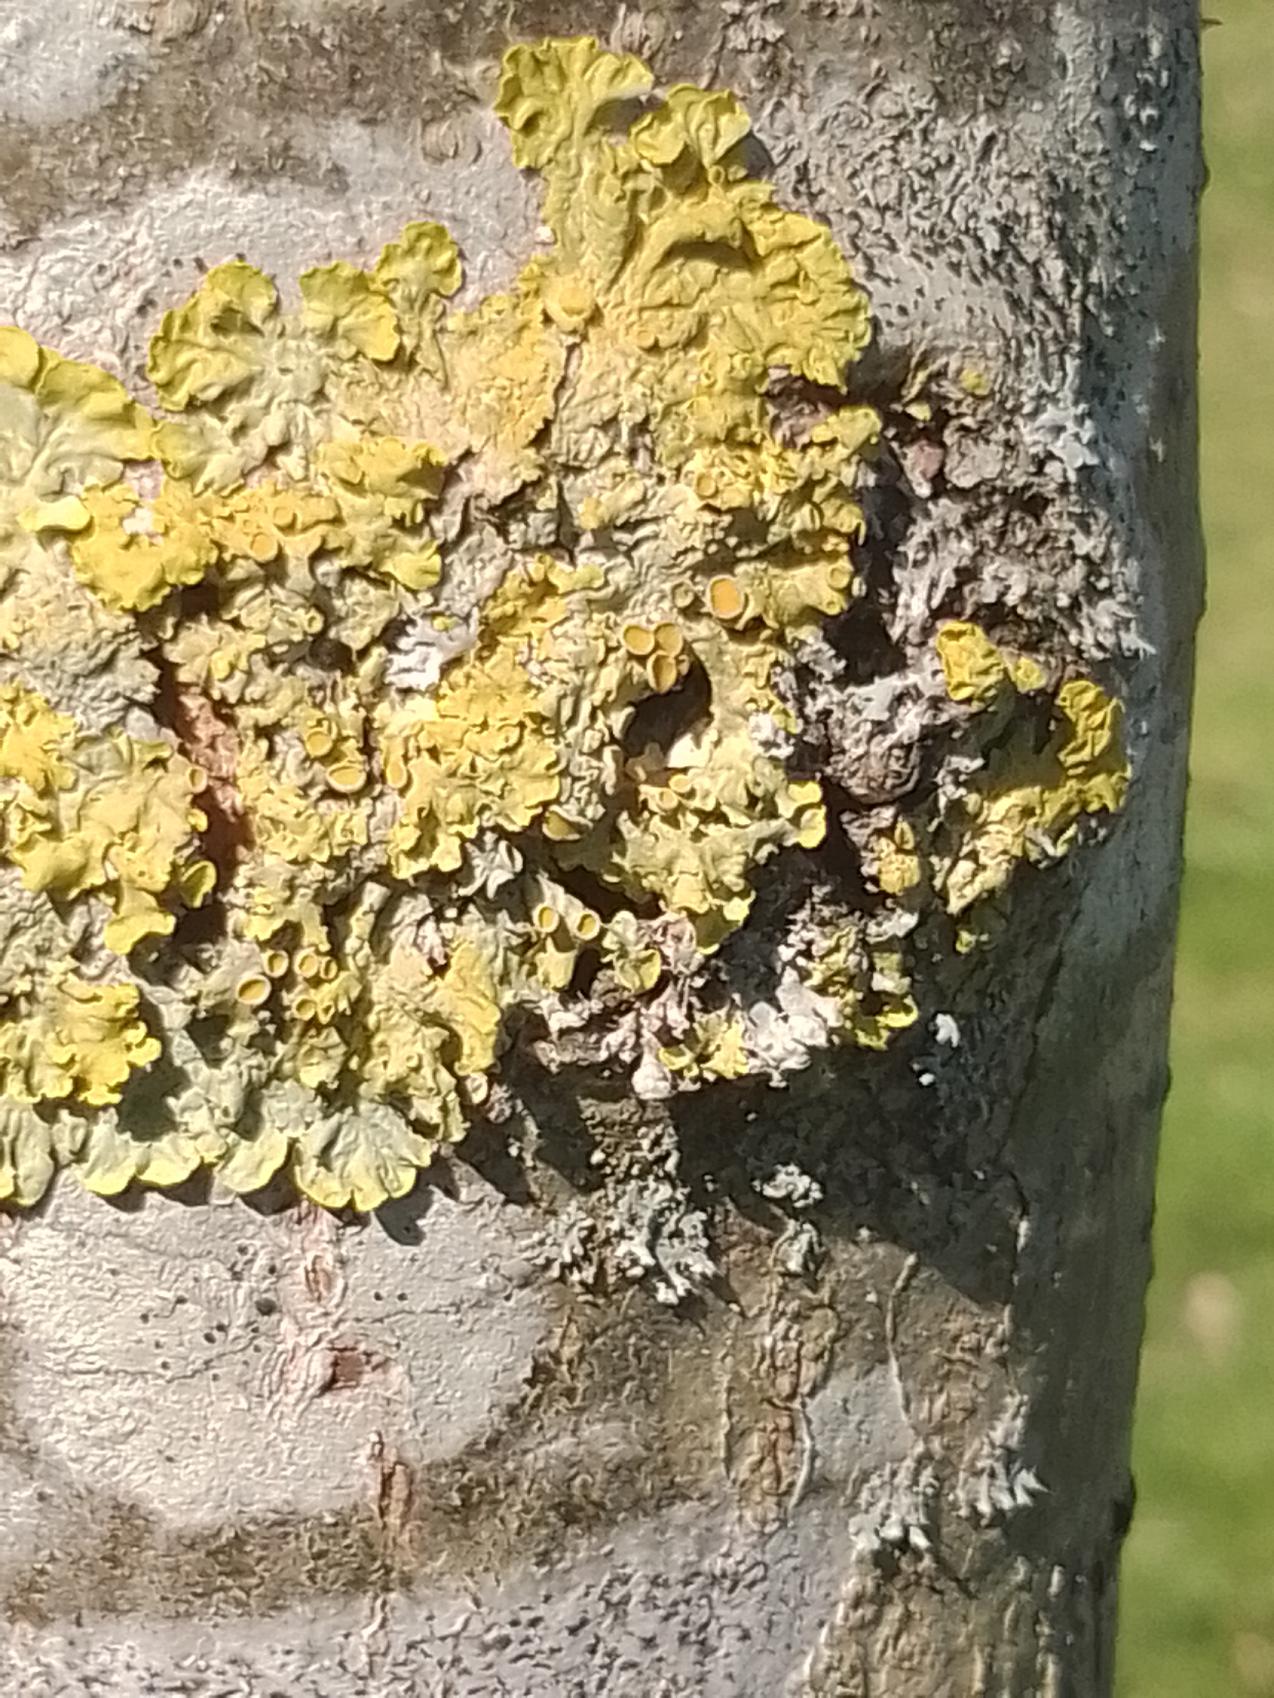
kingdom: Fungi
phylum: Ascomycota
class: Lecanoromycetes
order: Teloschistales
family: Teloschistaceae
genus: Xanthoria
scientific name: Xanthoria parietina
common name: Almindelig væggelav
